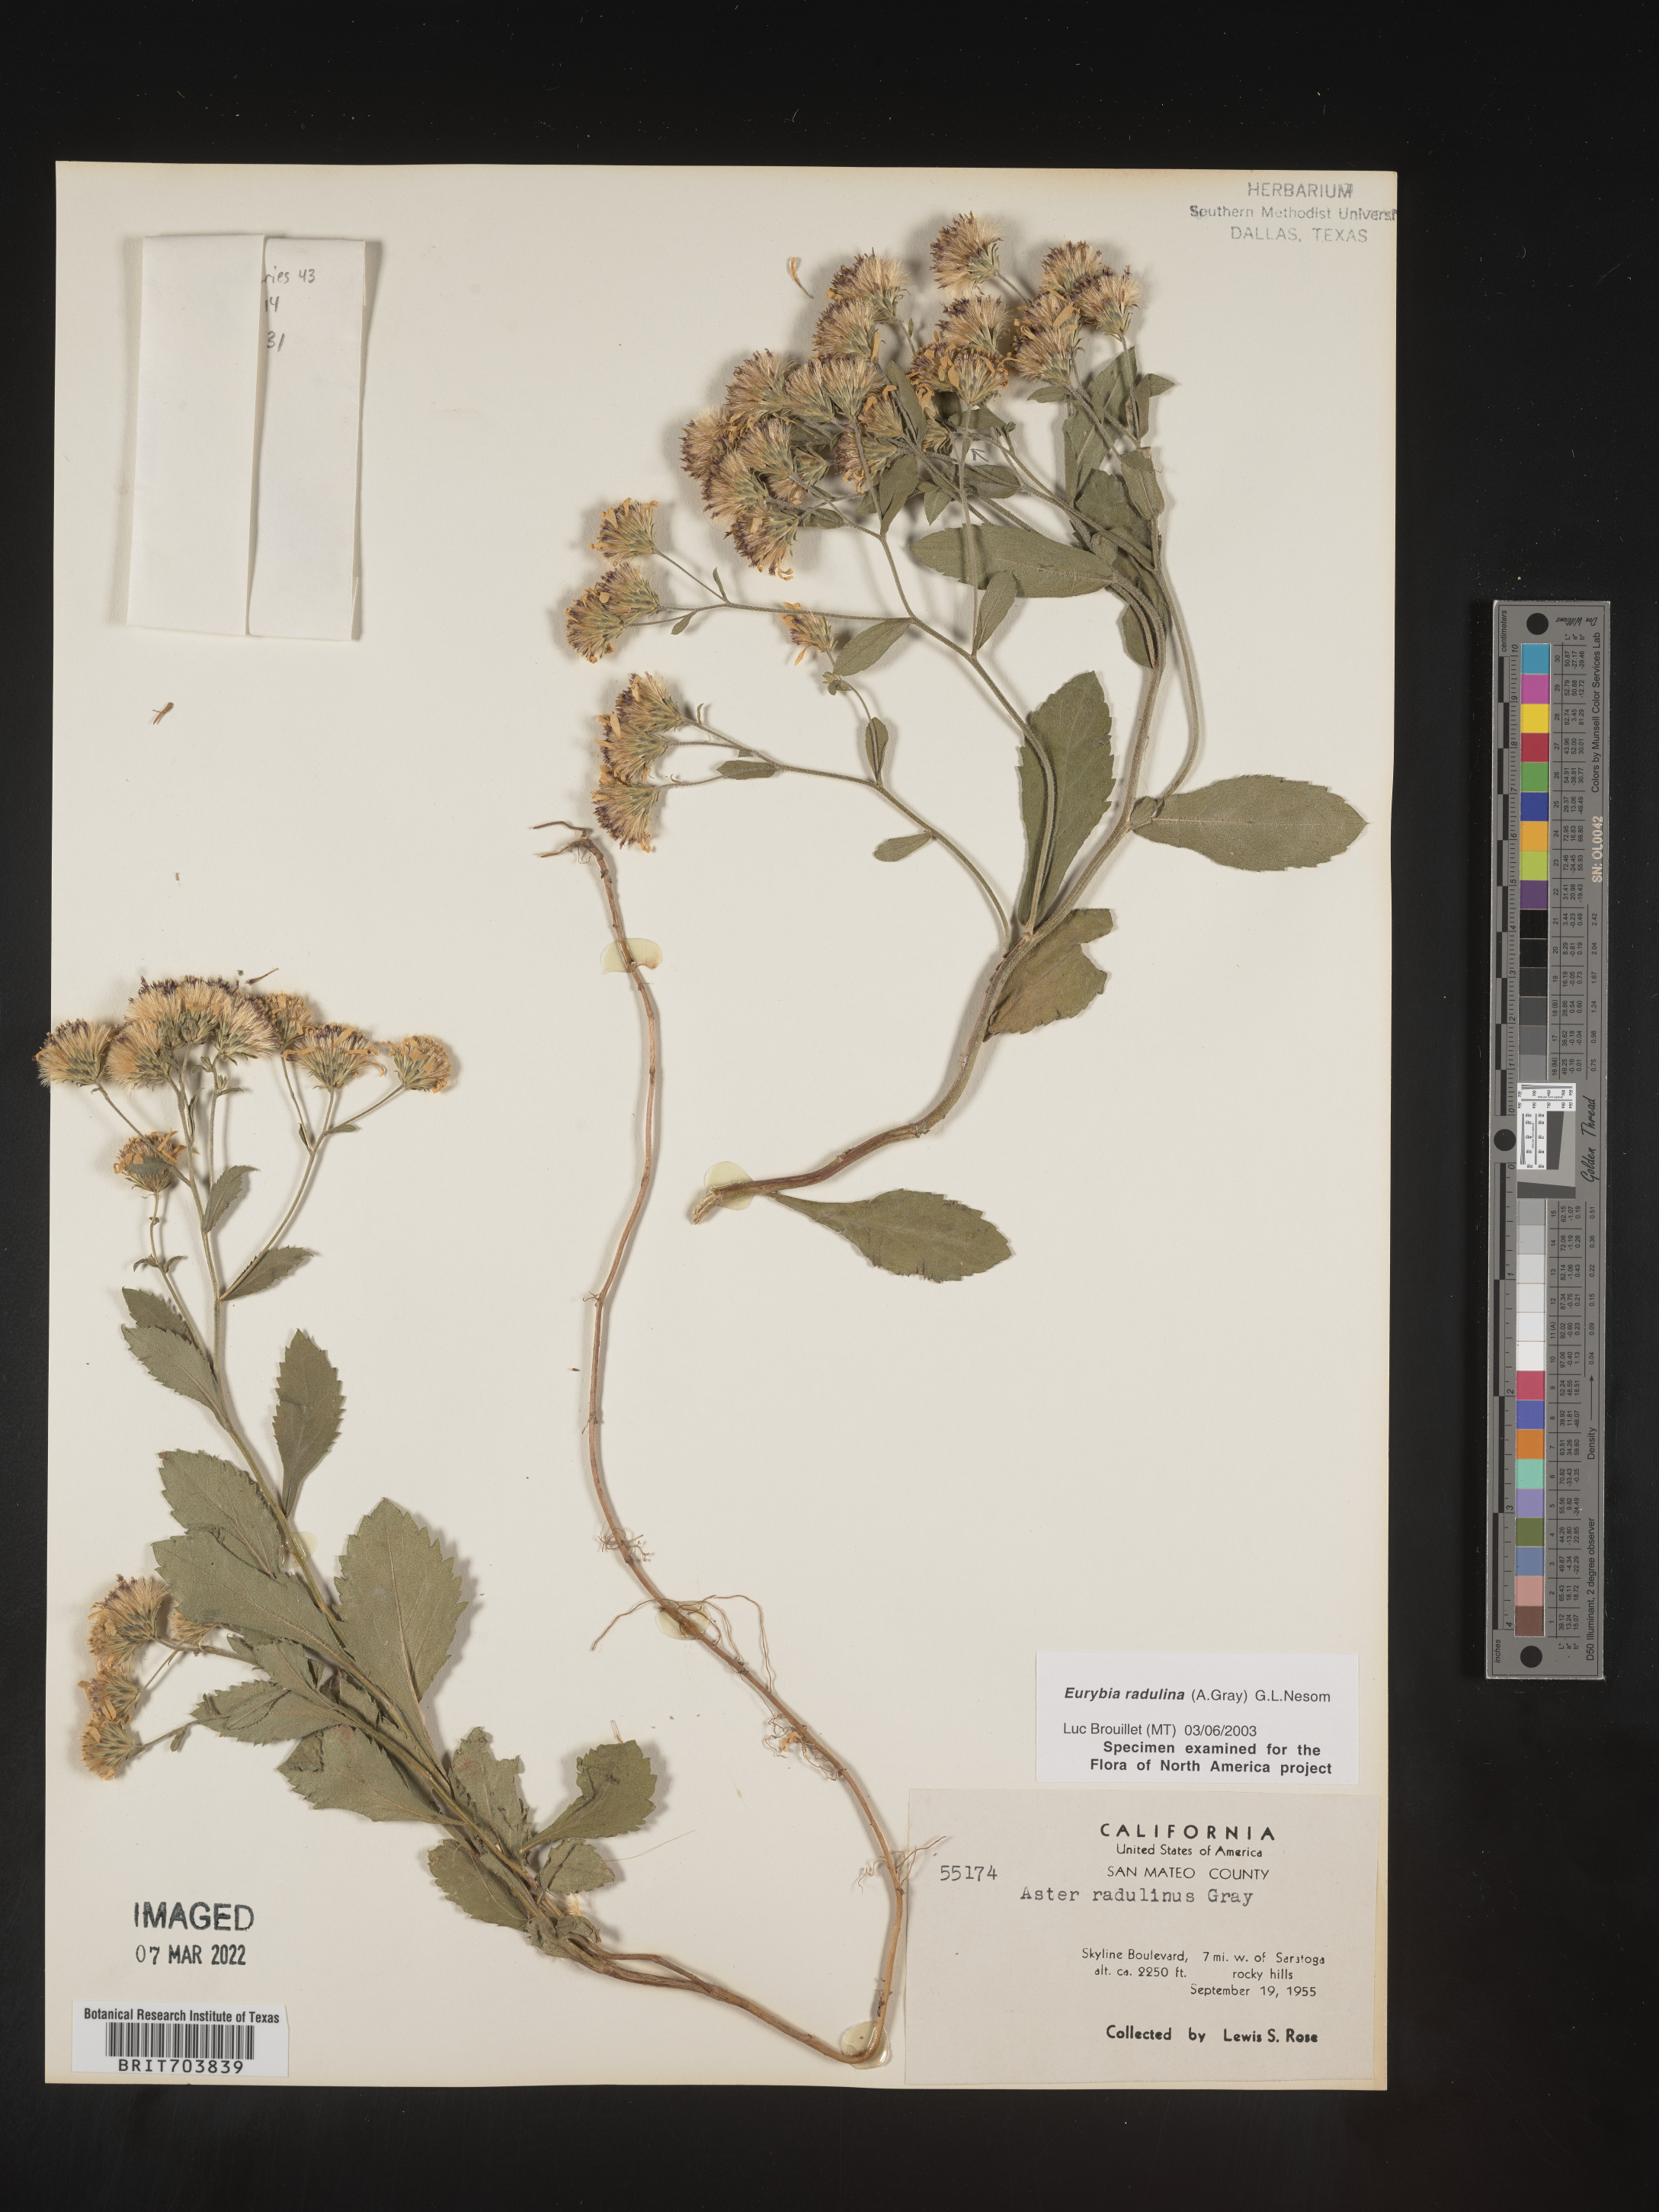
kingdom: Plantae
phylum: Tracheophyta
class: Magnoliopsida
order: Asterales
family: Asteraceae
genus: Eurybia
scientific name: Eurybia radulina
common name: Rough-leaved aster
